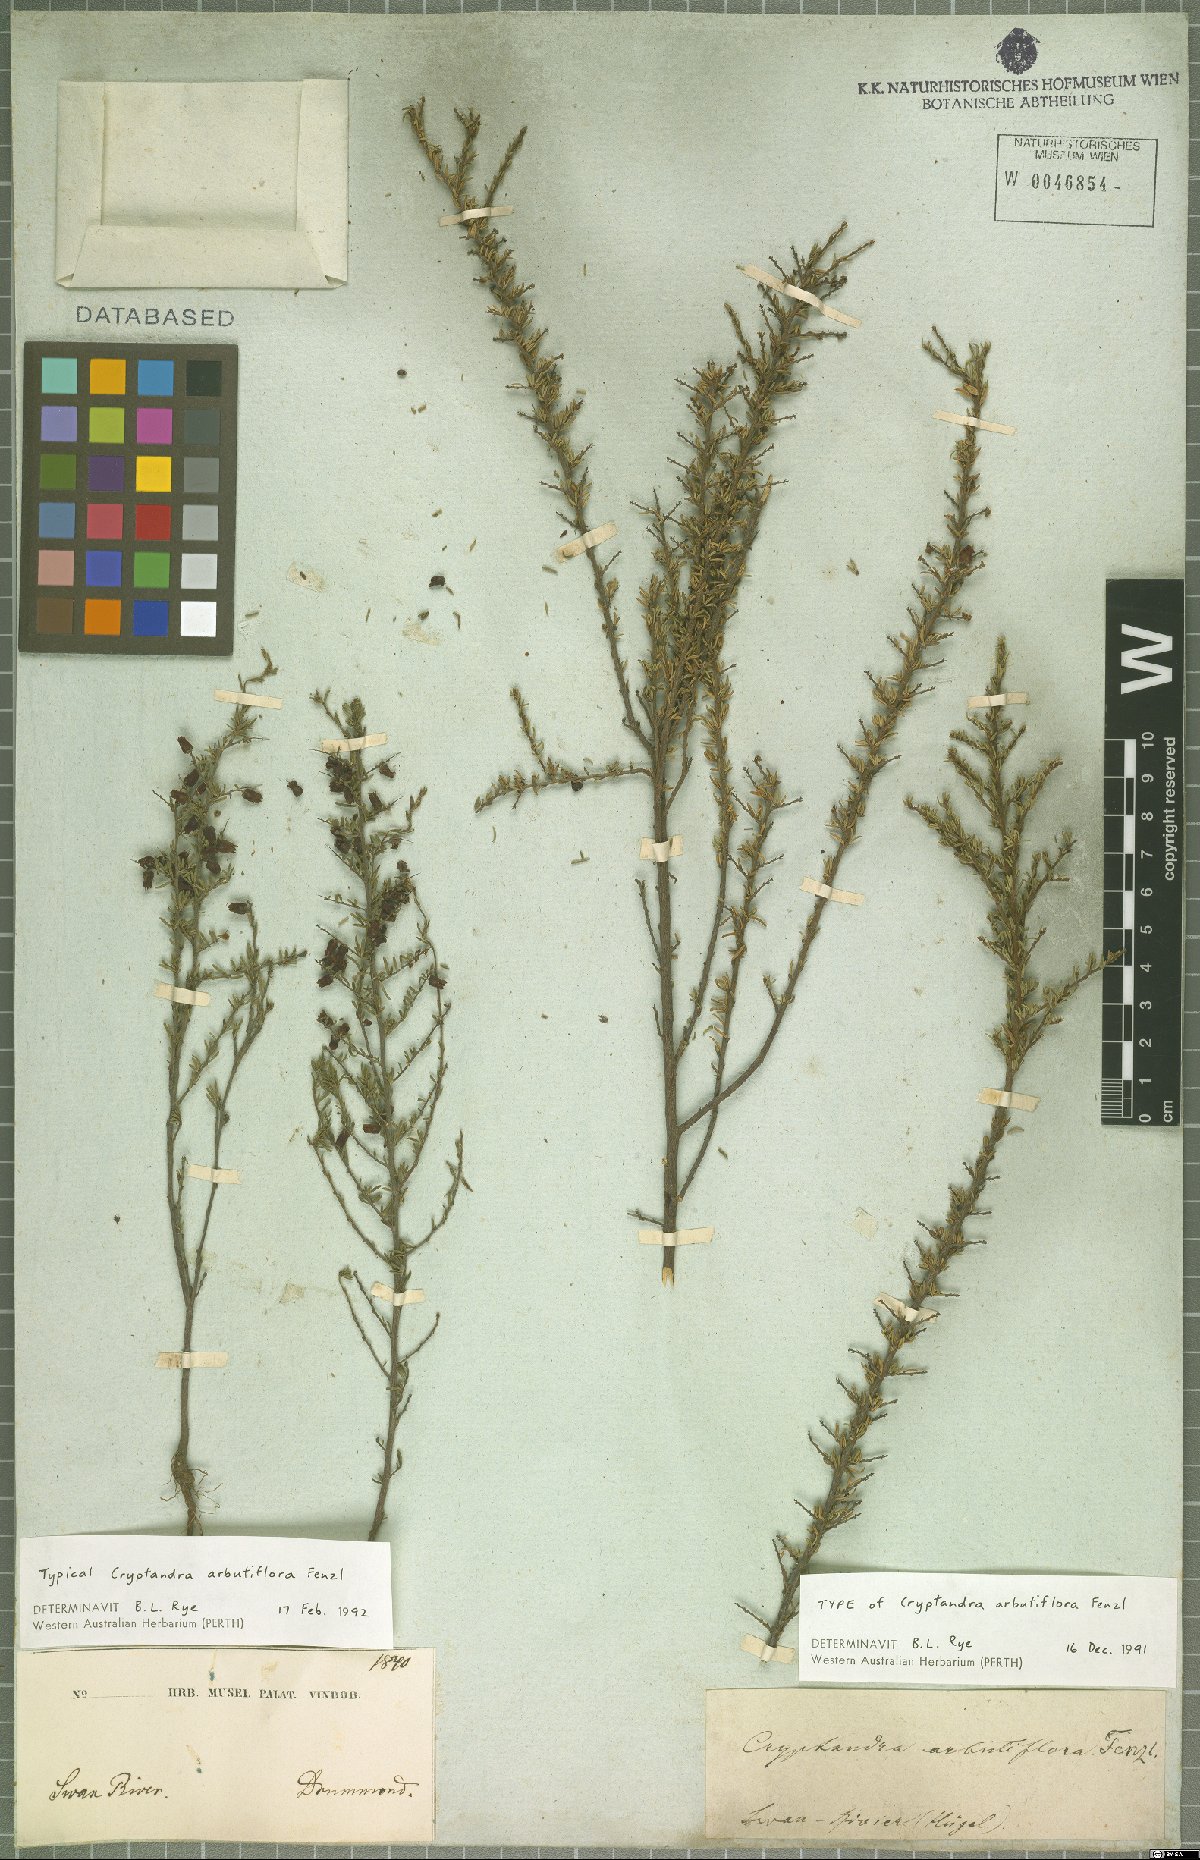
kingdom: Plantae
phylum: Tracheophyta
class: Magnoliopsida
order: Rosales
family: Rhamnaceae
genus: Cryptandra
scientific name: Cryptandra arbutiflora
